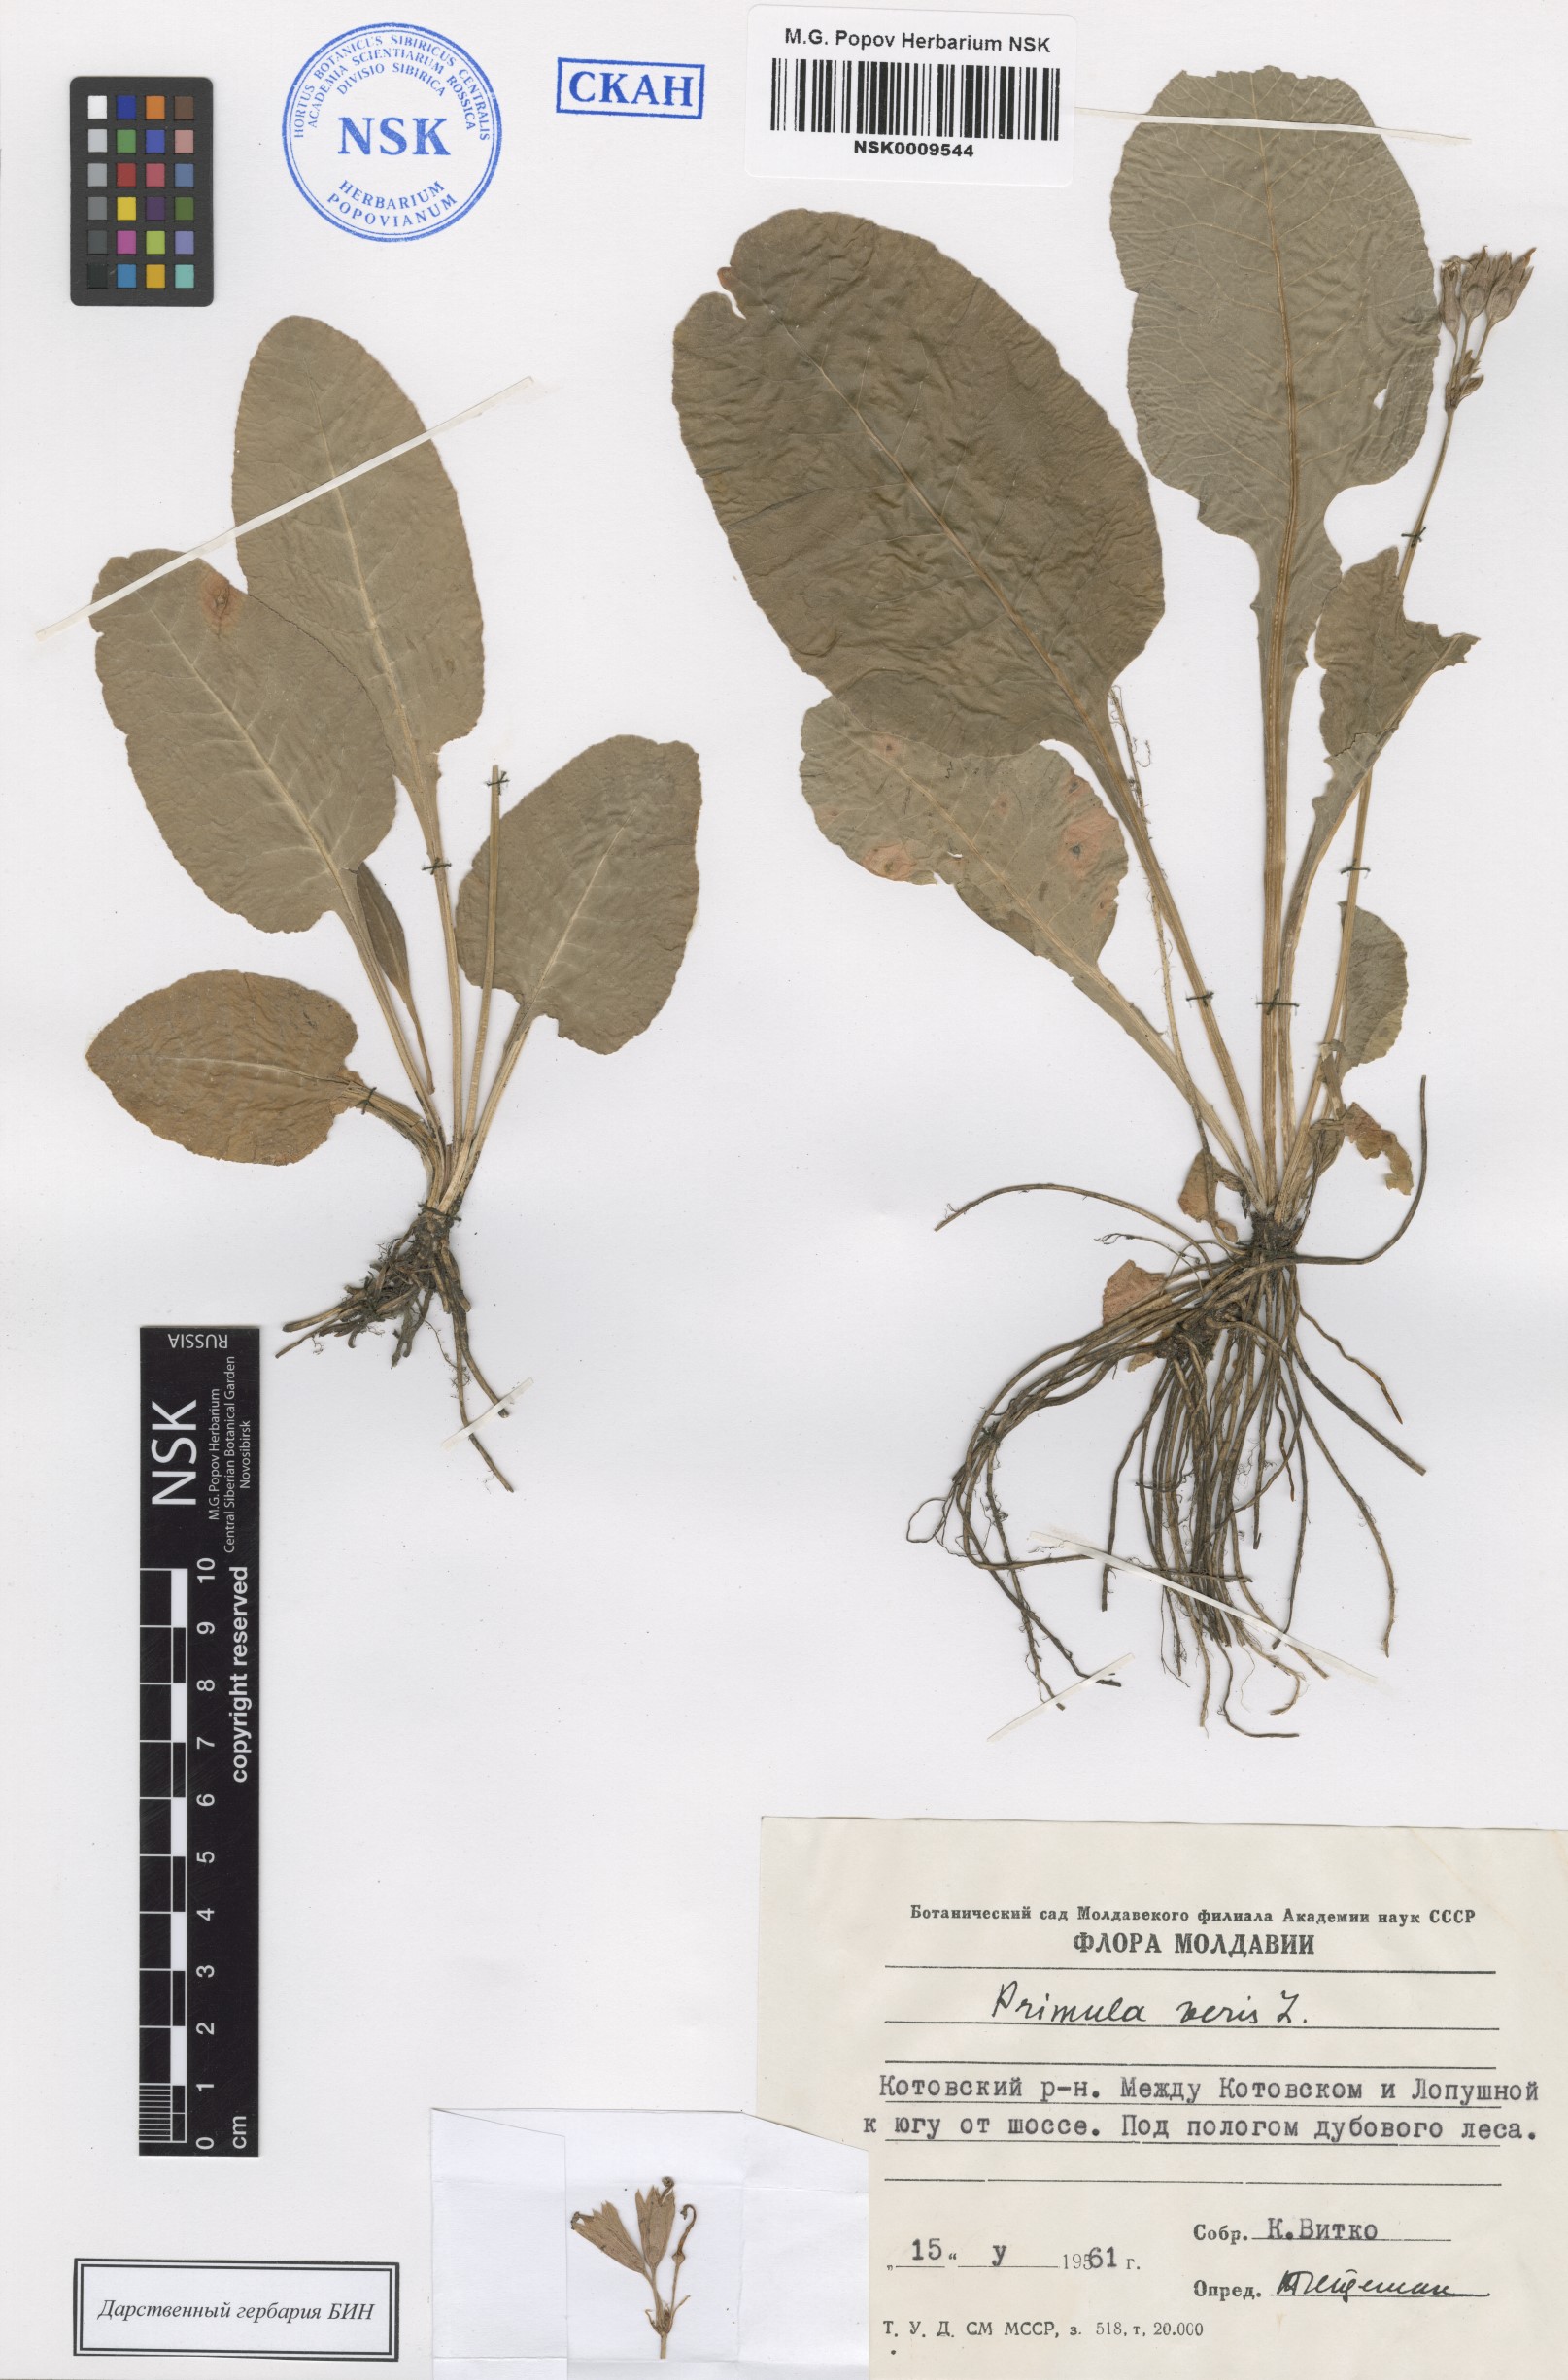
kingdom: Plantae
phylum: Tracheophyta
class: Magnoliopsida
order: Ericales
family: Primulaceae
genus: Primula
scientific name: Primula veris
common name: Cowslip
